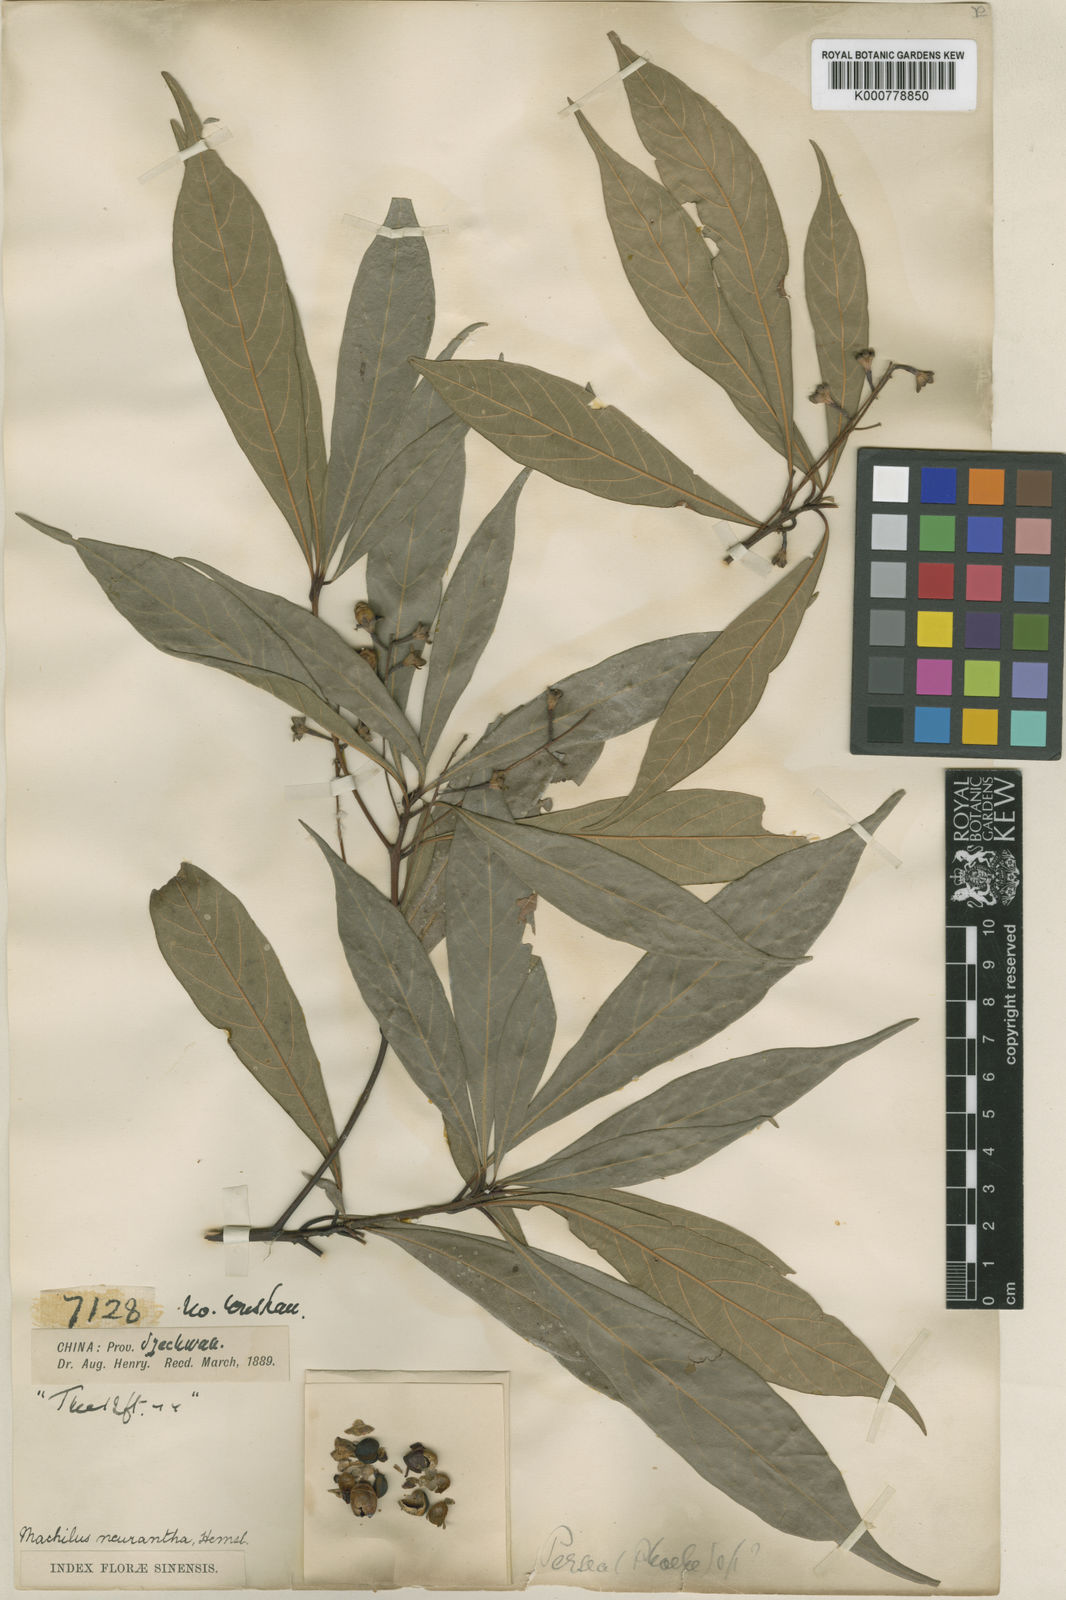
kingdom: Plantae
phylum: Tracheophyta
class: Magnoliopsida
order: Laurales
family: Lauraceae
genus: Phoebe
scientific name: Phoebe neurantha
